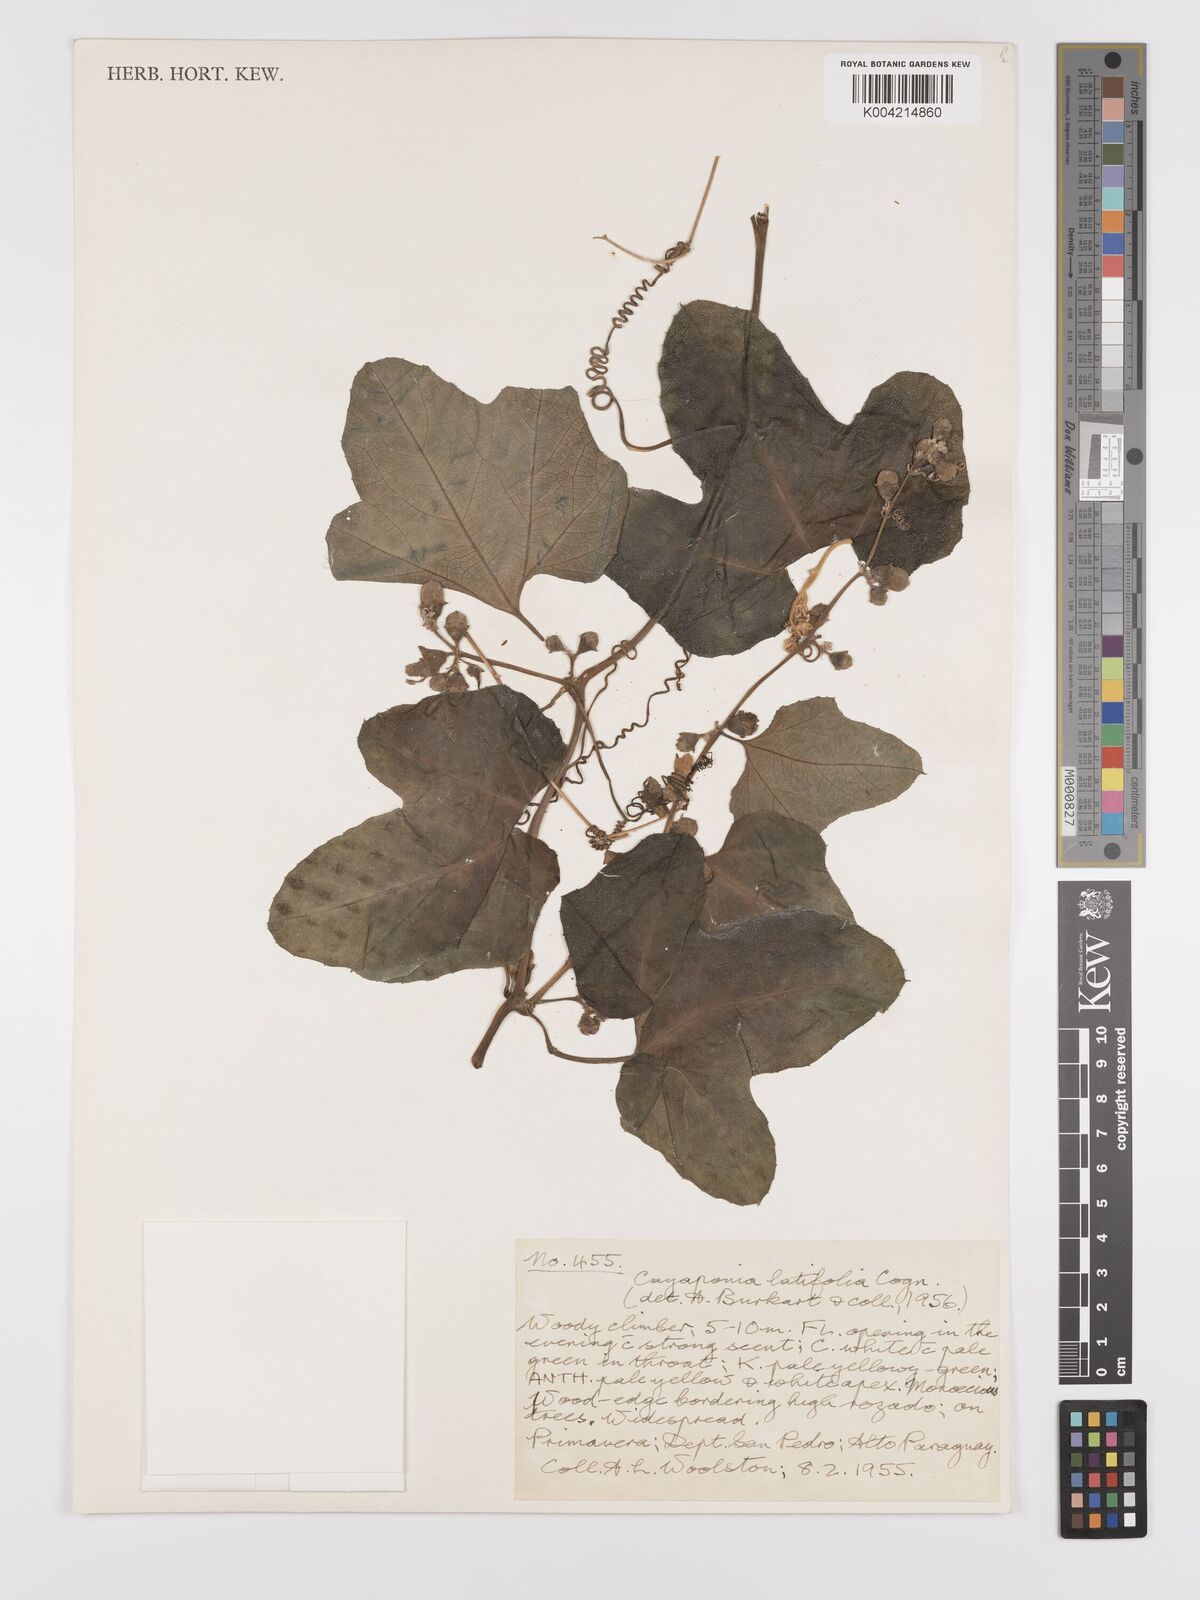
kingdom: Plantae
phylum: Tracheophyta
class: Magnoliopsida
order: Cucurbitales
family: Cucurbitaceae
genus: Cayaponia
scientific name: Cayaponia citrullifolia
